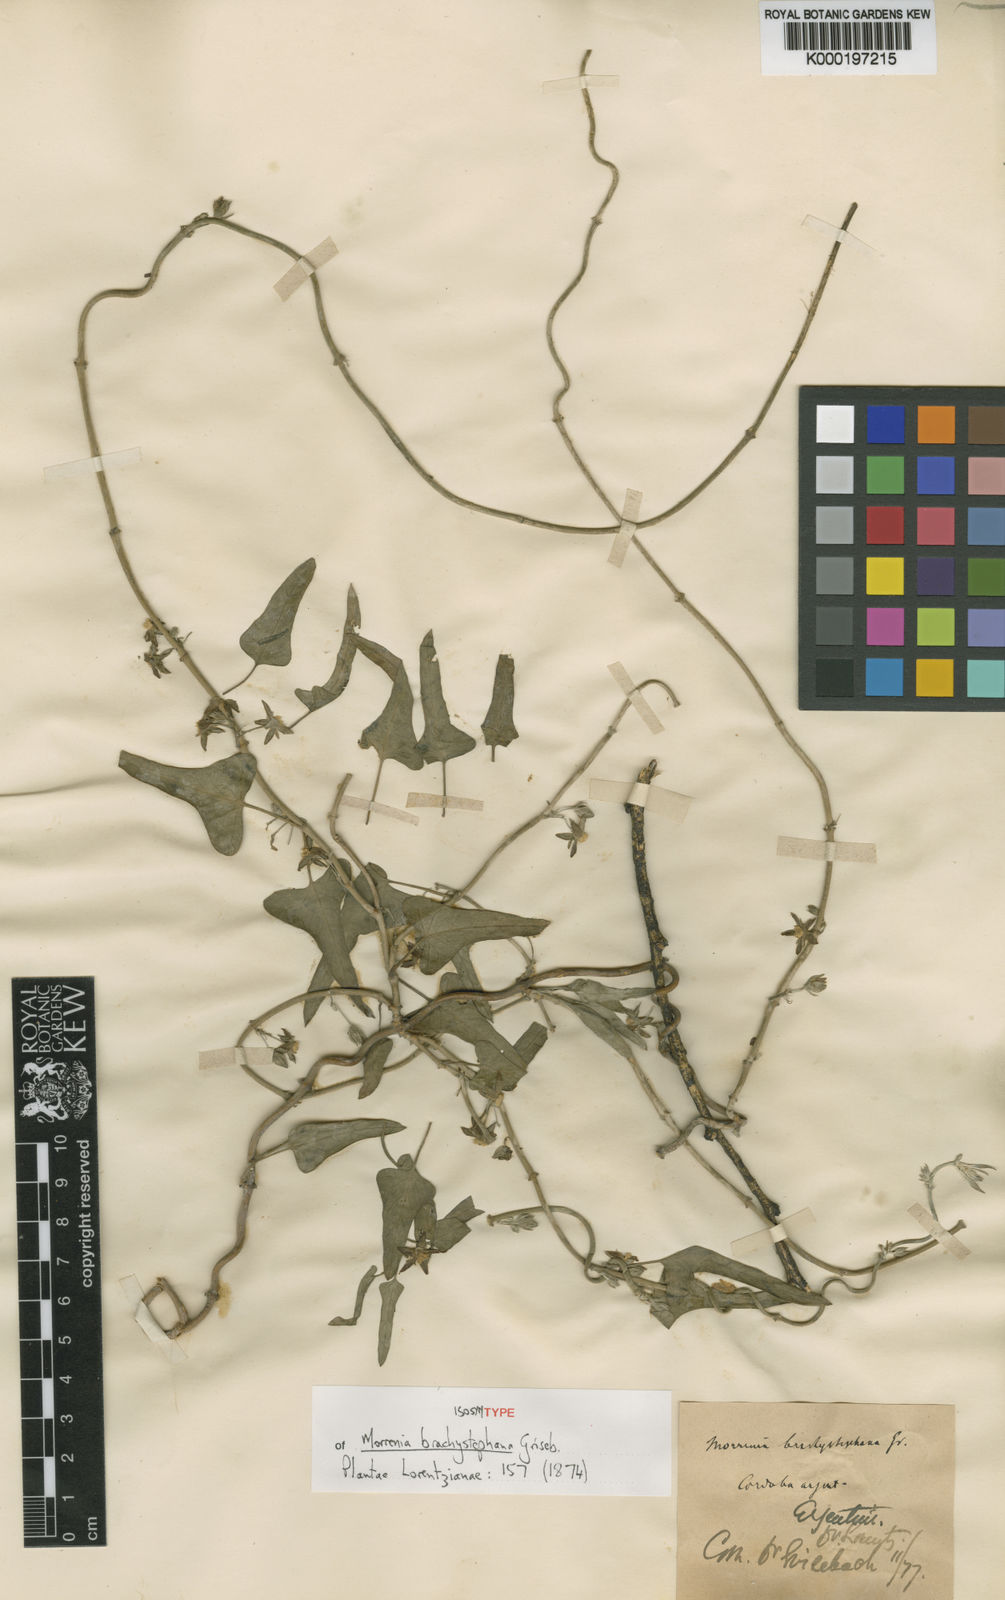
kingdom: Plantae
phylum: Tracheophyta
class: Magnoliopsida
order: Gentianales
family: Apocynaceae
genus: Araujia
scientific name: Araujia brachystephana
